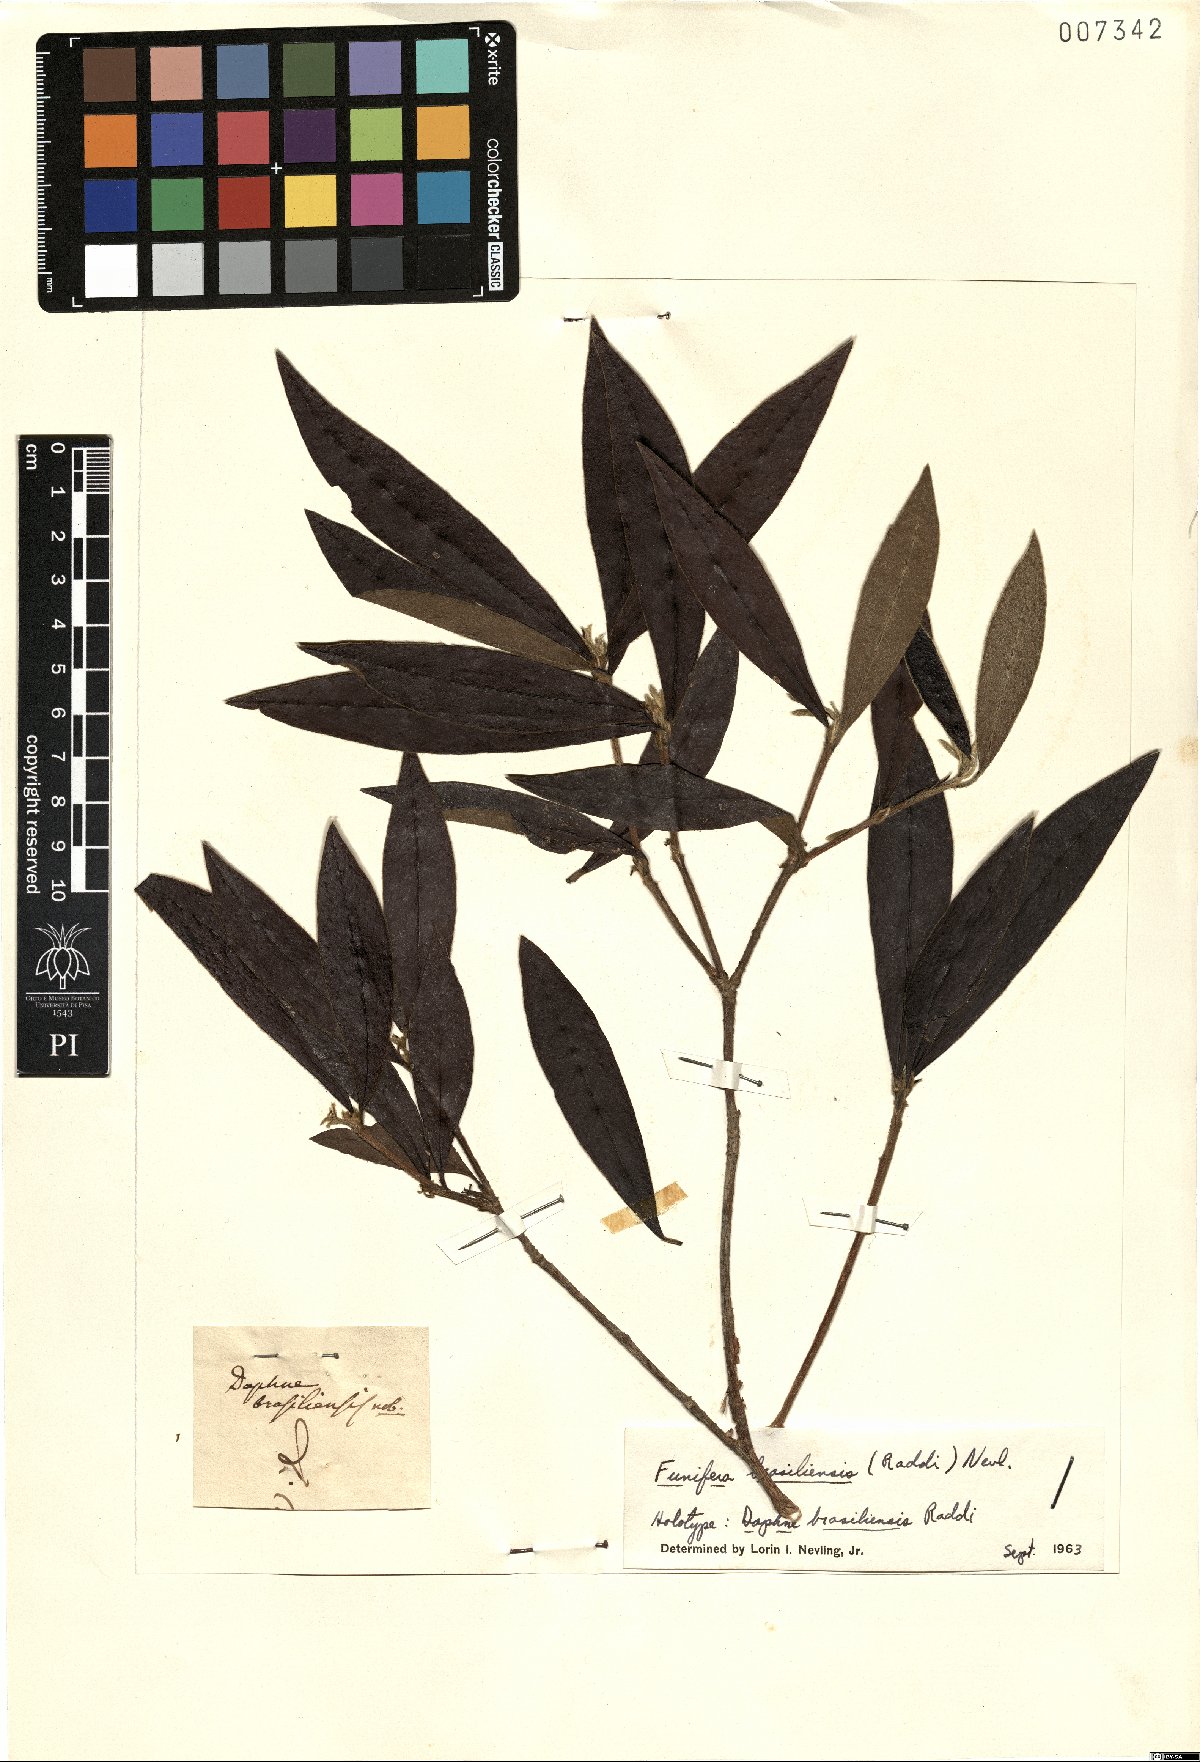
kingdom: Plantae
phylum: Tracheophyta
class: Magnoliopsida
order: Malvales
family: Thymelaeaceae
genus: Funifera
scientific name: Funifera brasiliensis
